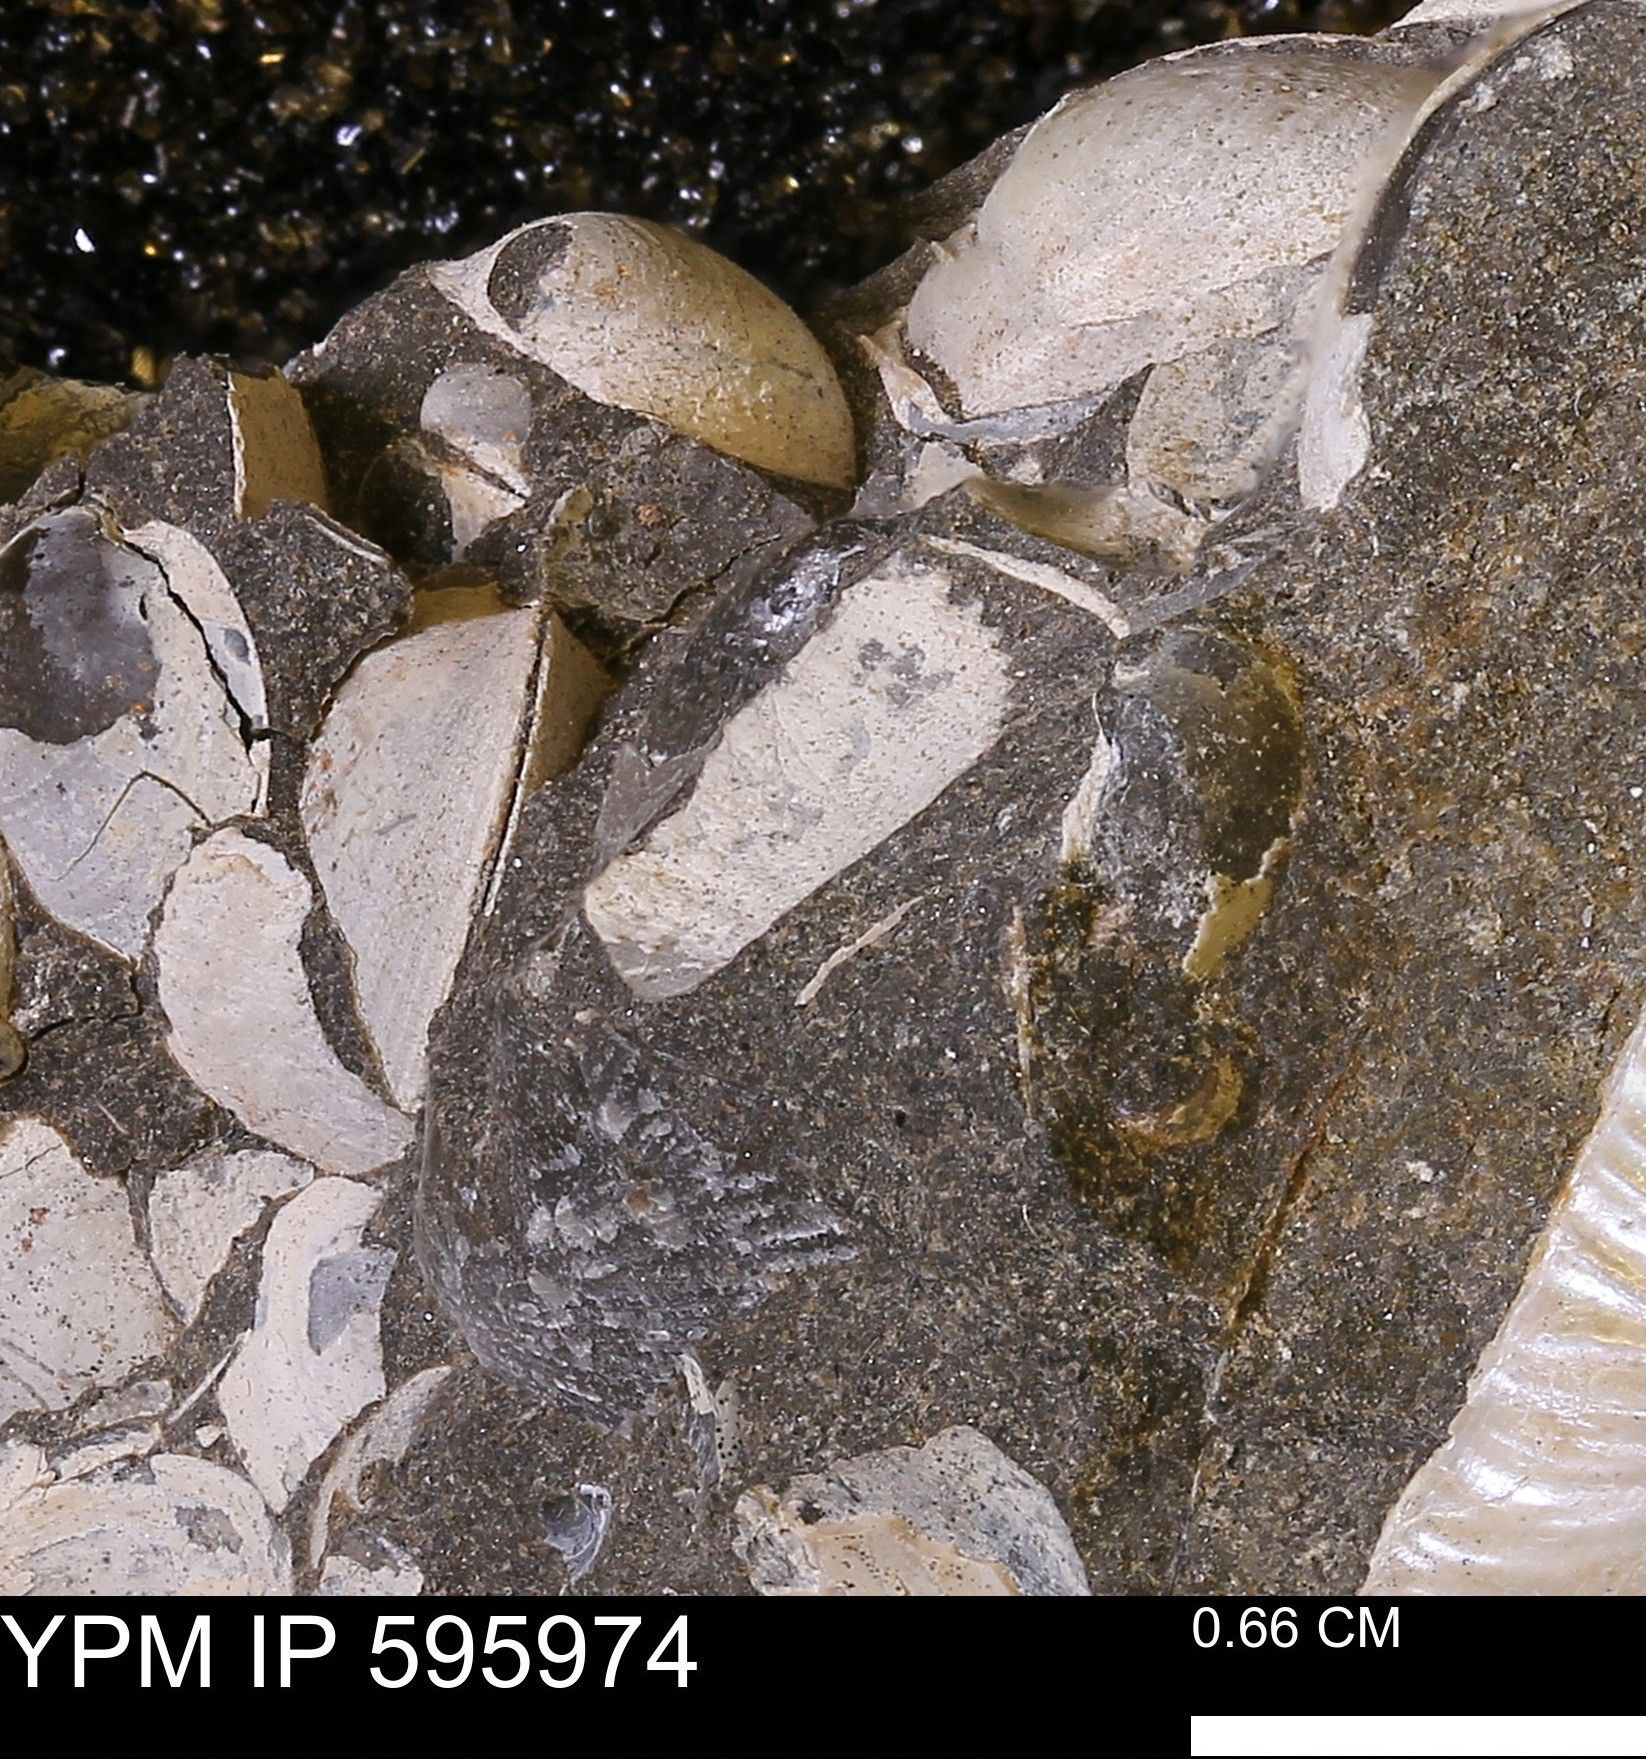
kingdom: Animalia
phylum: Mollusca
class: Bivalvia
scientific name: Bivalvia
